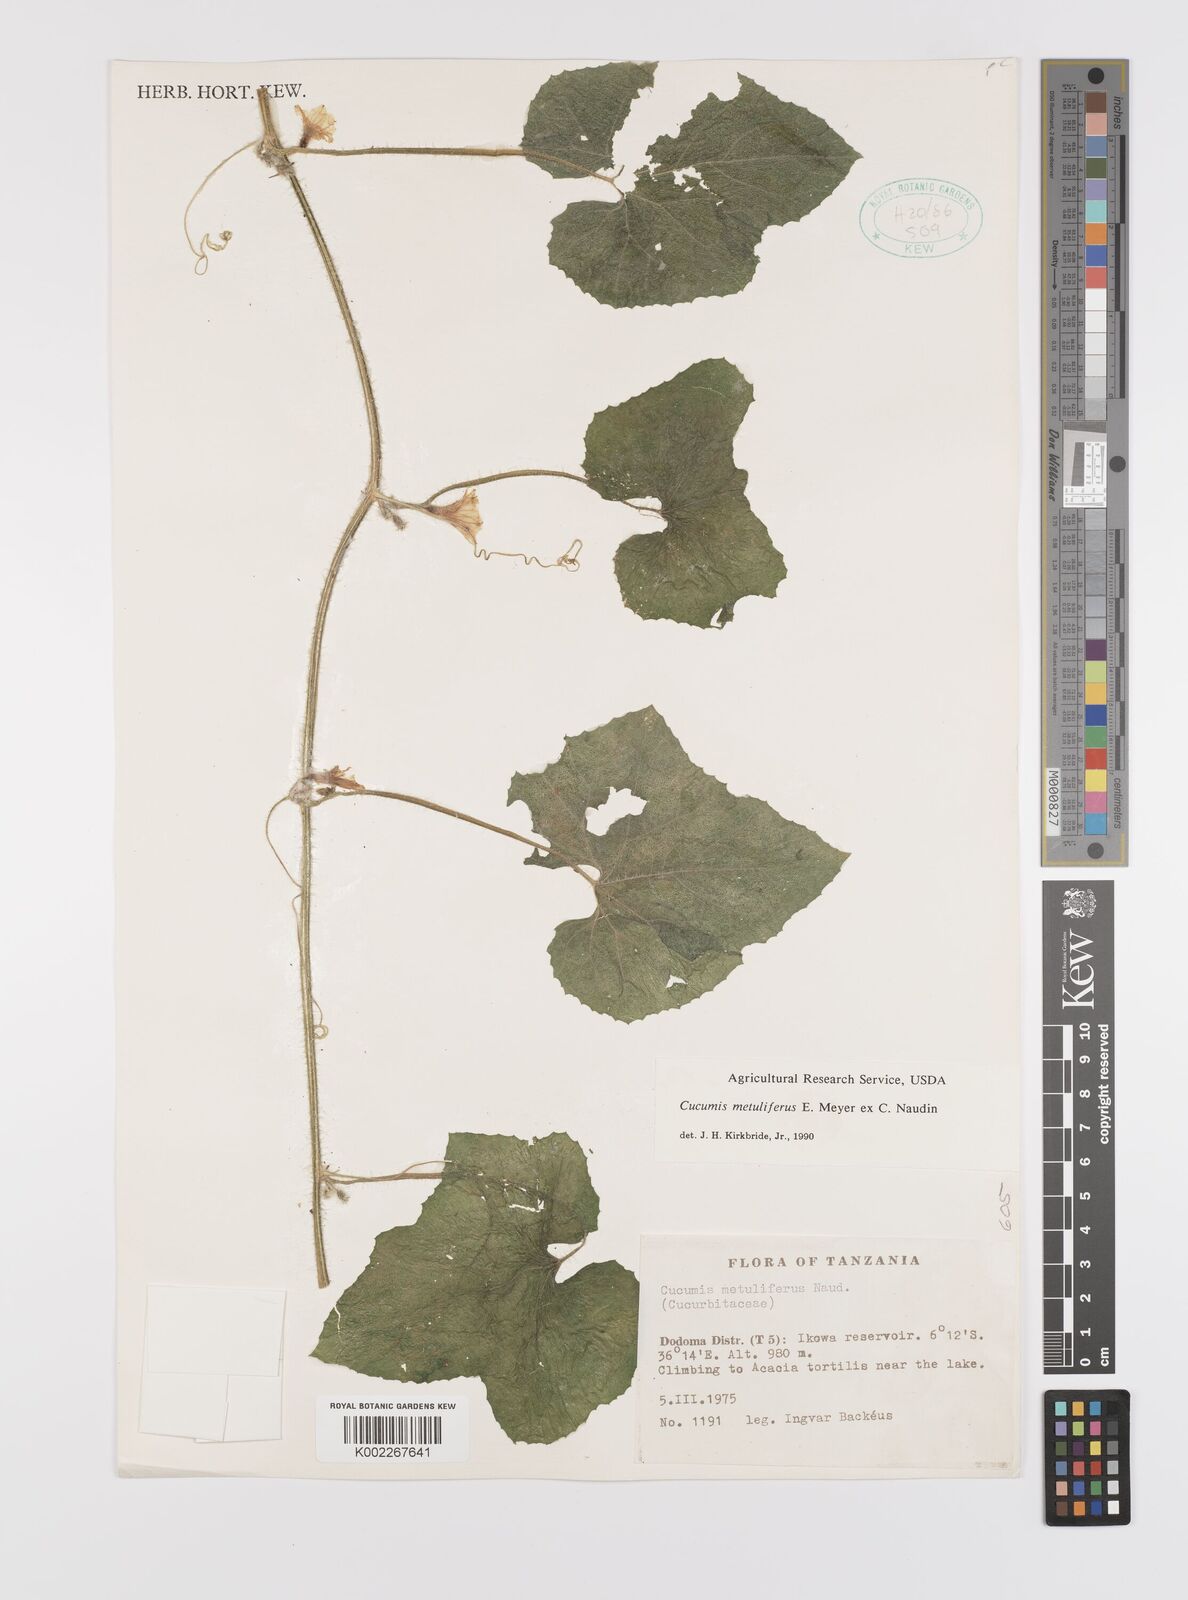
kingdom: Plantae
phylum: Tracheophyta
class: Magnoliopsida
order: Cucurbitales
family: Cucurbitaceae
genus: Cucumis
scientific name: Cucumis metuliferus
